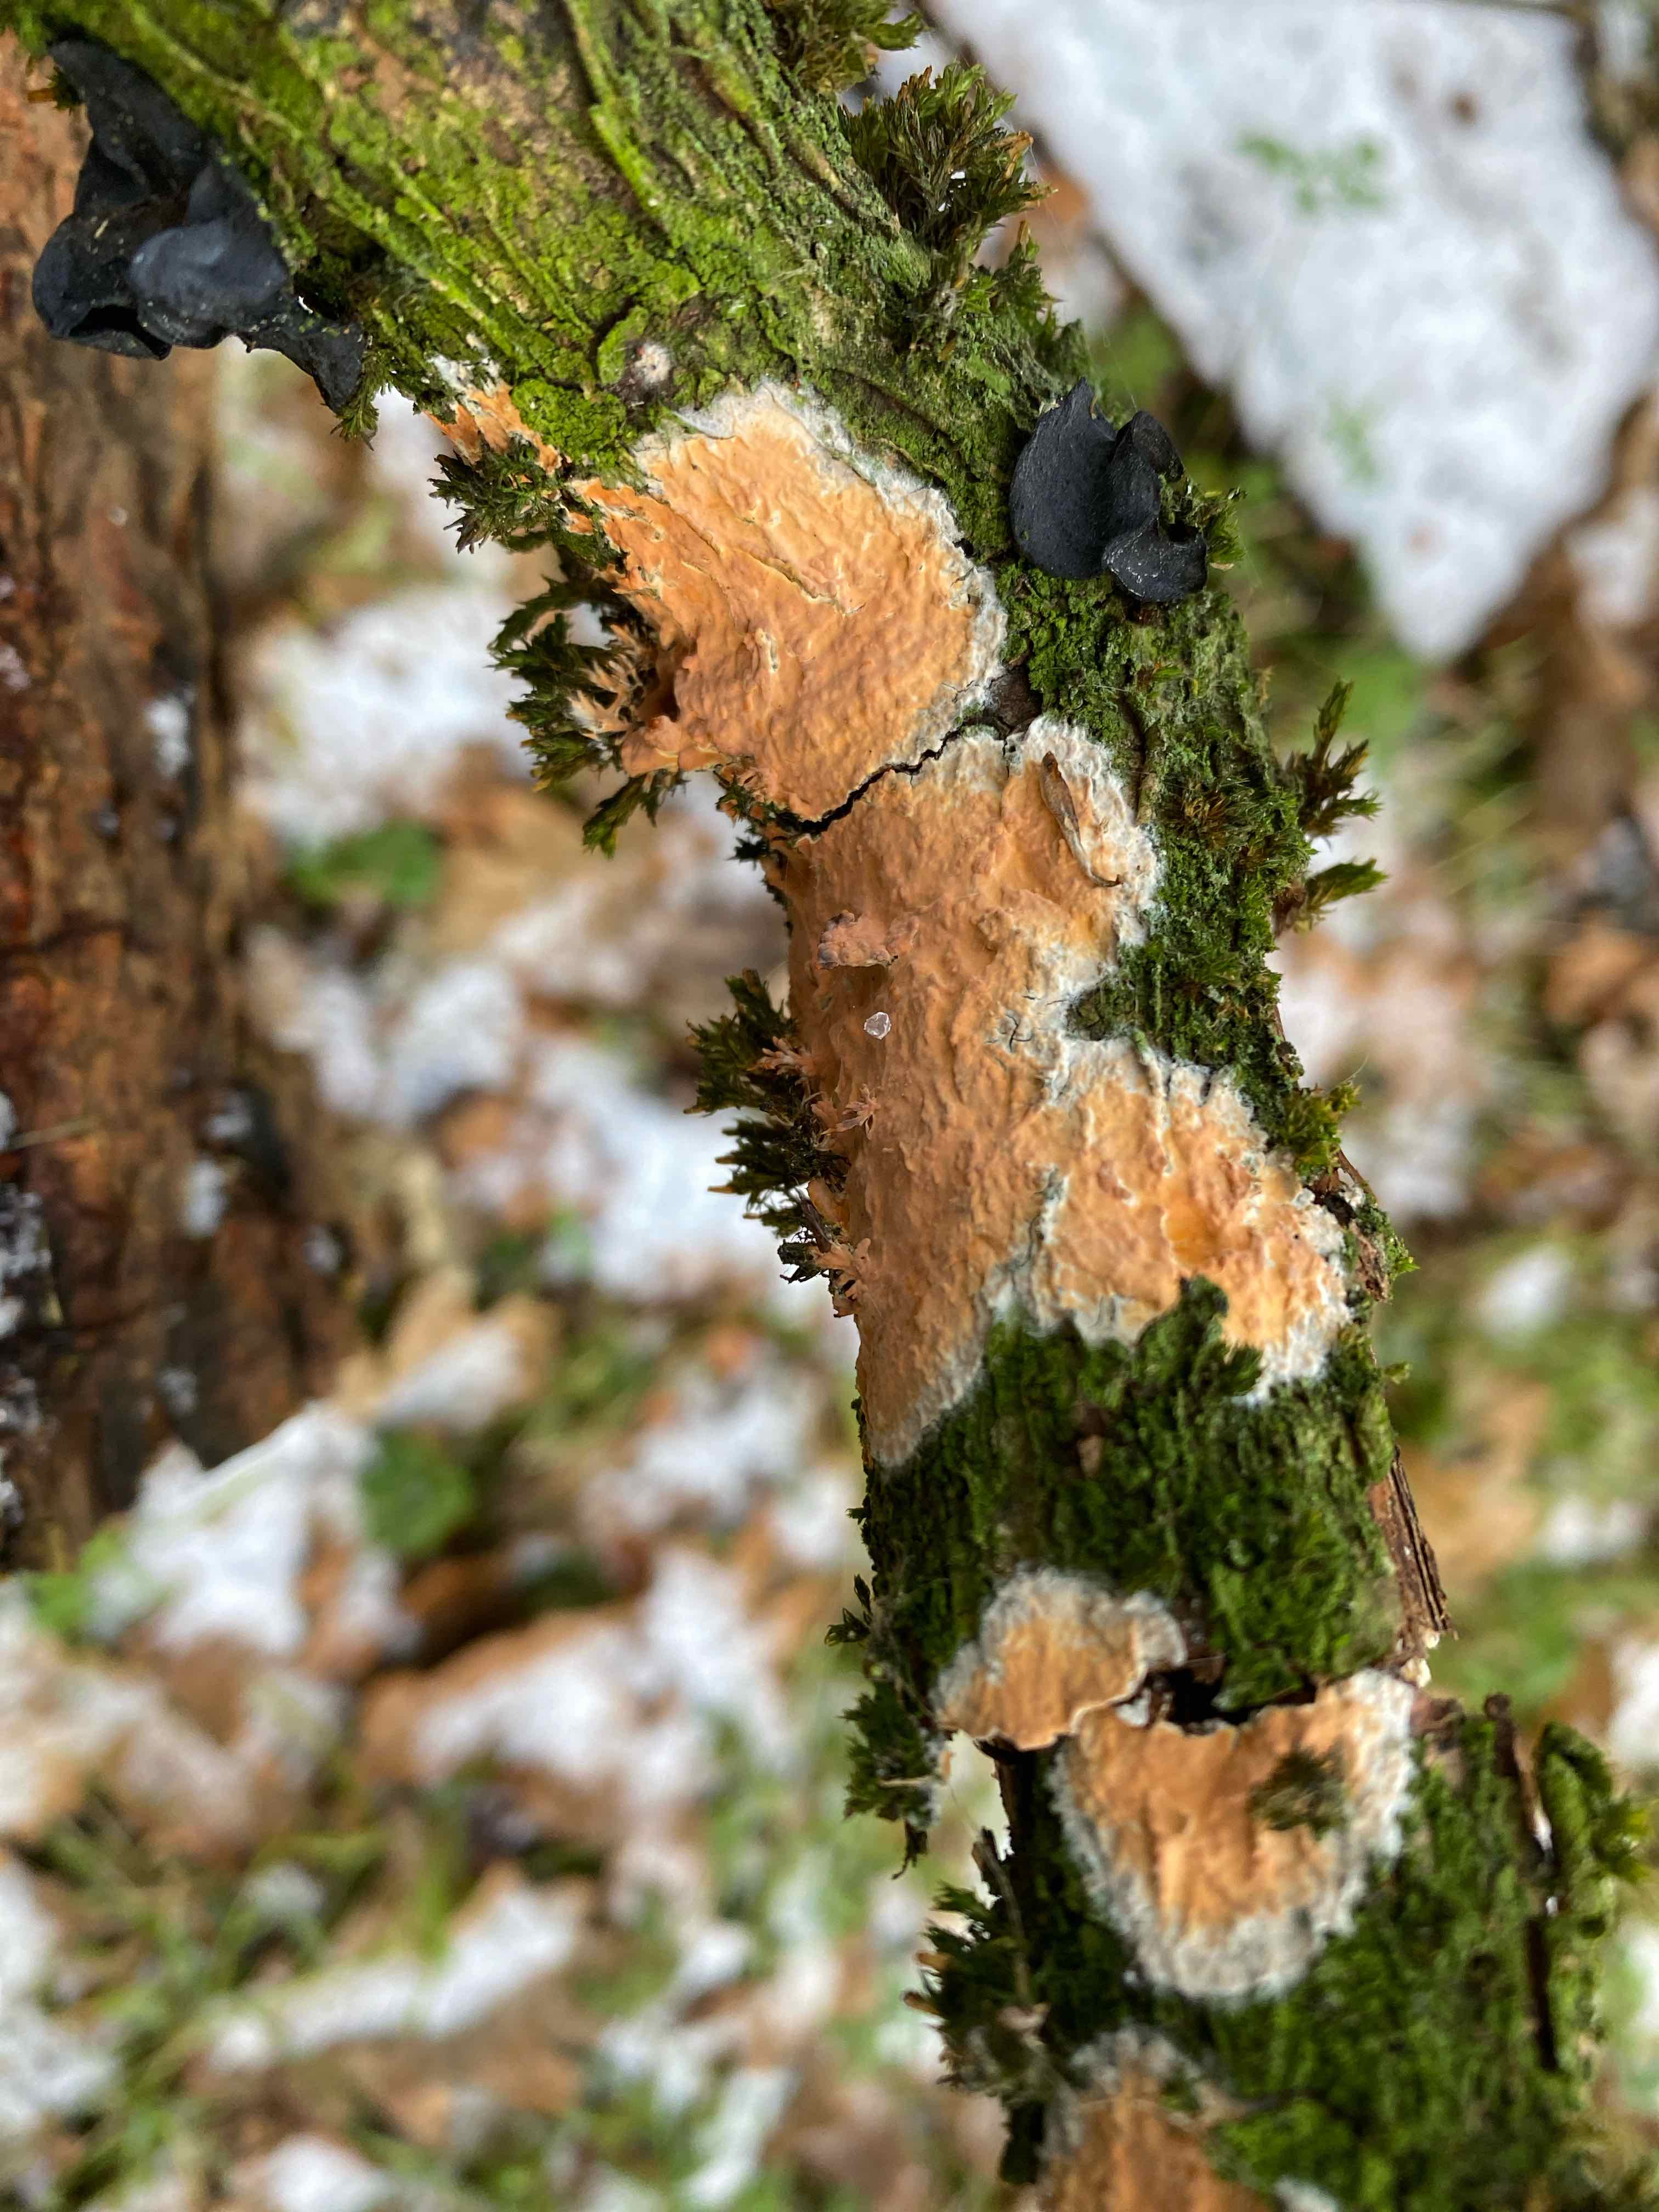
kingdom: Fungi
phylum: Basidiomycota
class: Agaricomycetes
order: Russulales
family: Peniophoraceae
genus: Peniophora
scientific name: Peniophora incarnata
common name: laksefarvet voksskind
